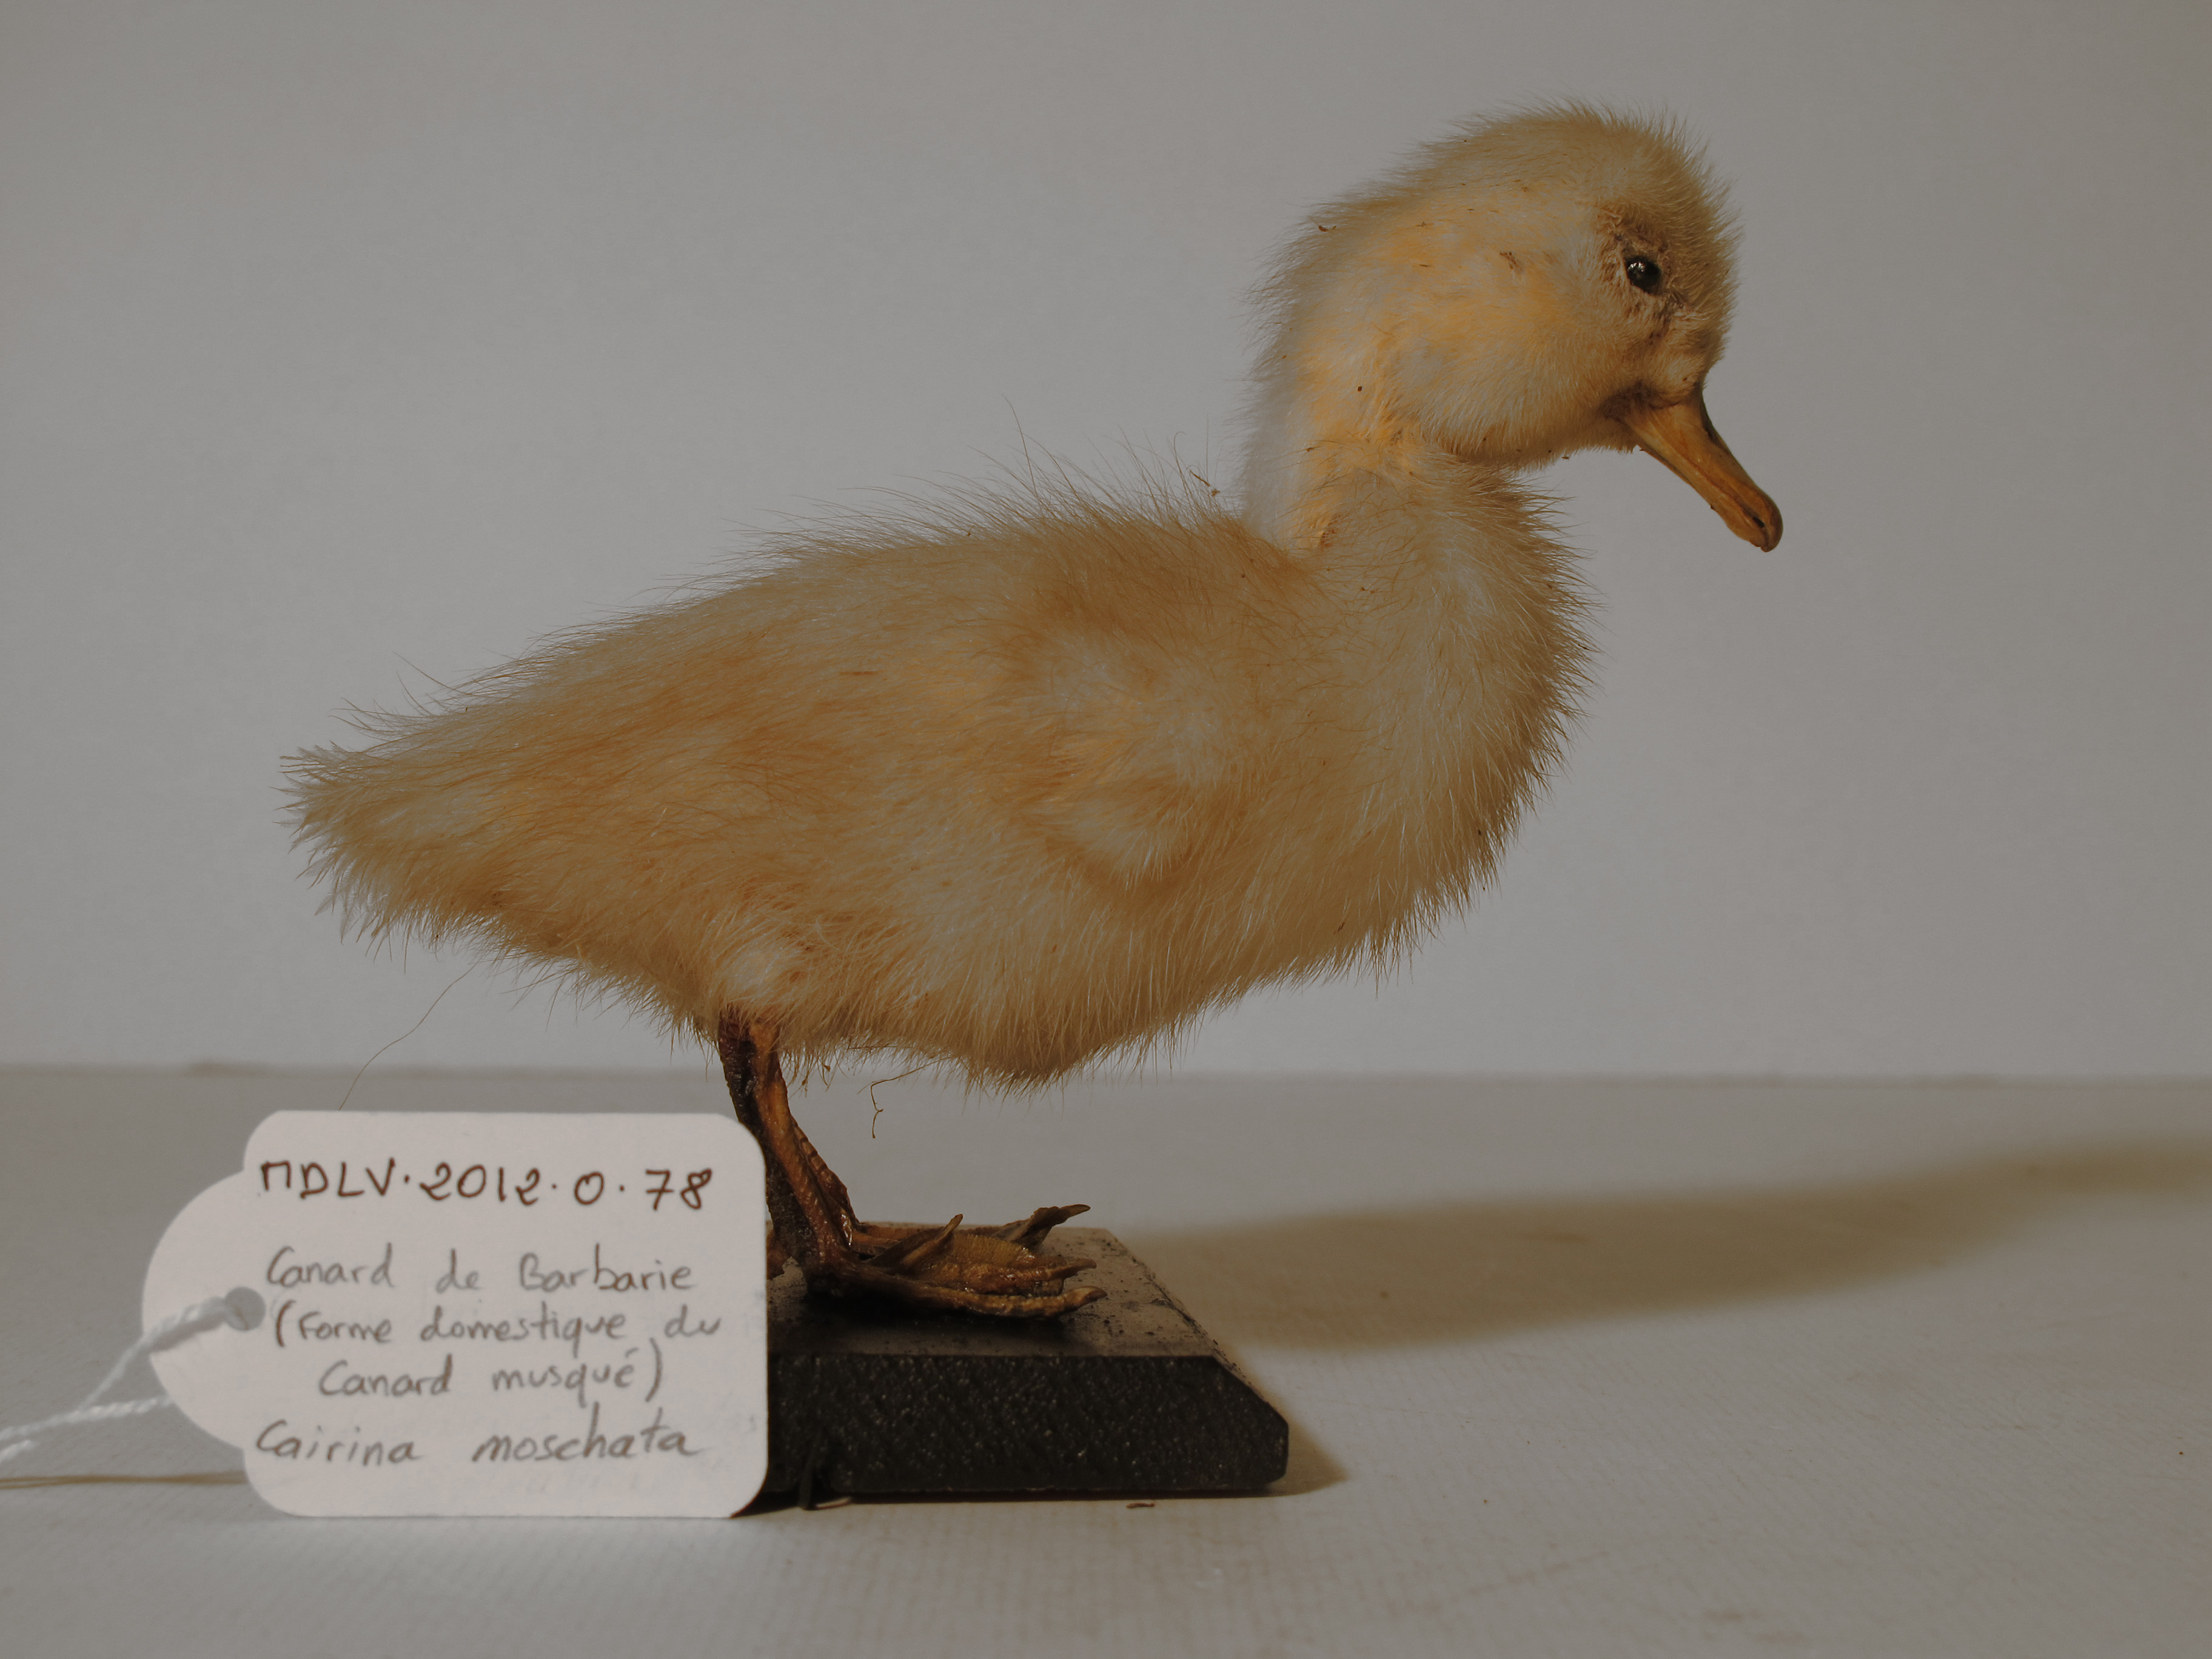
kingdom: Animalia
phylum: Chordata
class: Aves
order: Anseriformes
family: Anatidae
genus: Cairina
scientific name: Cairina moschata
